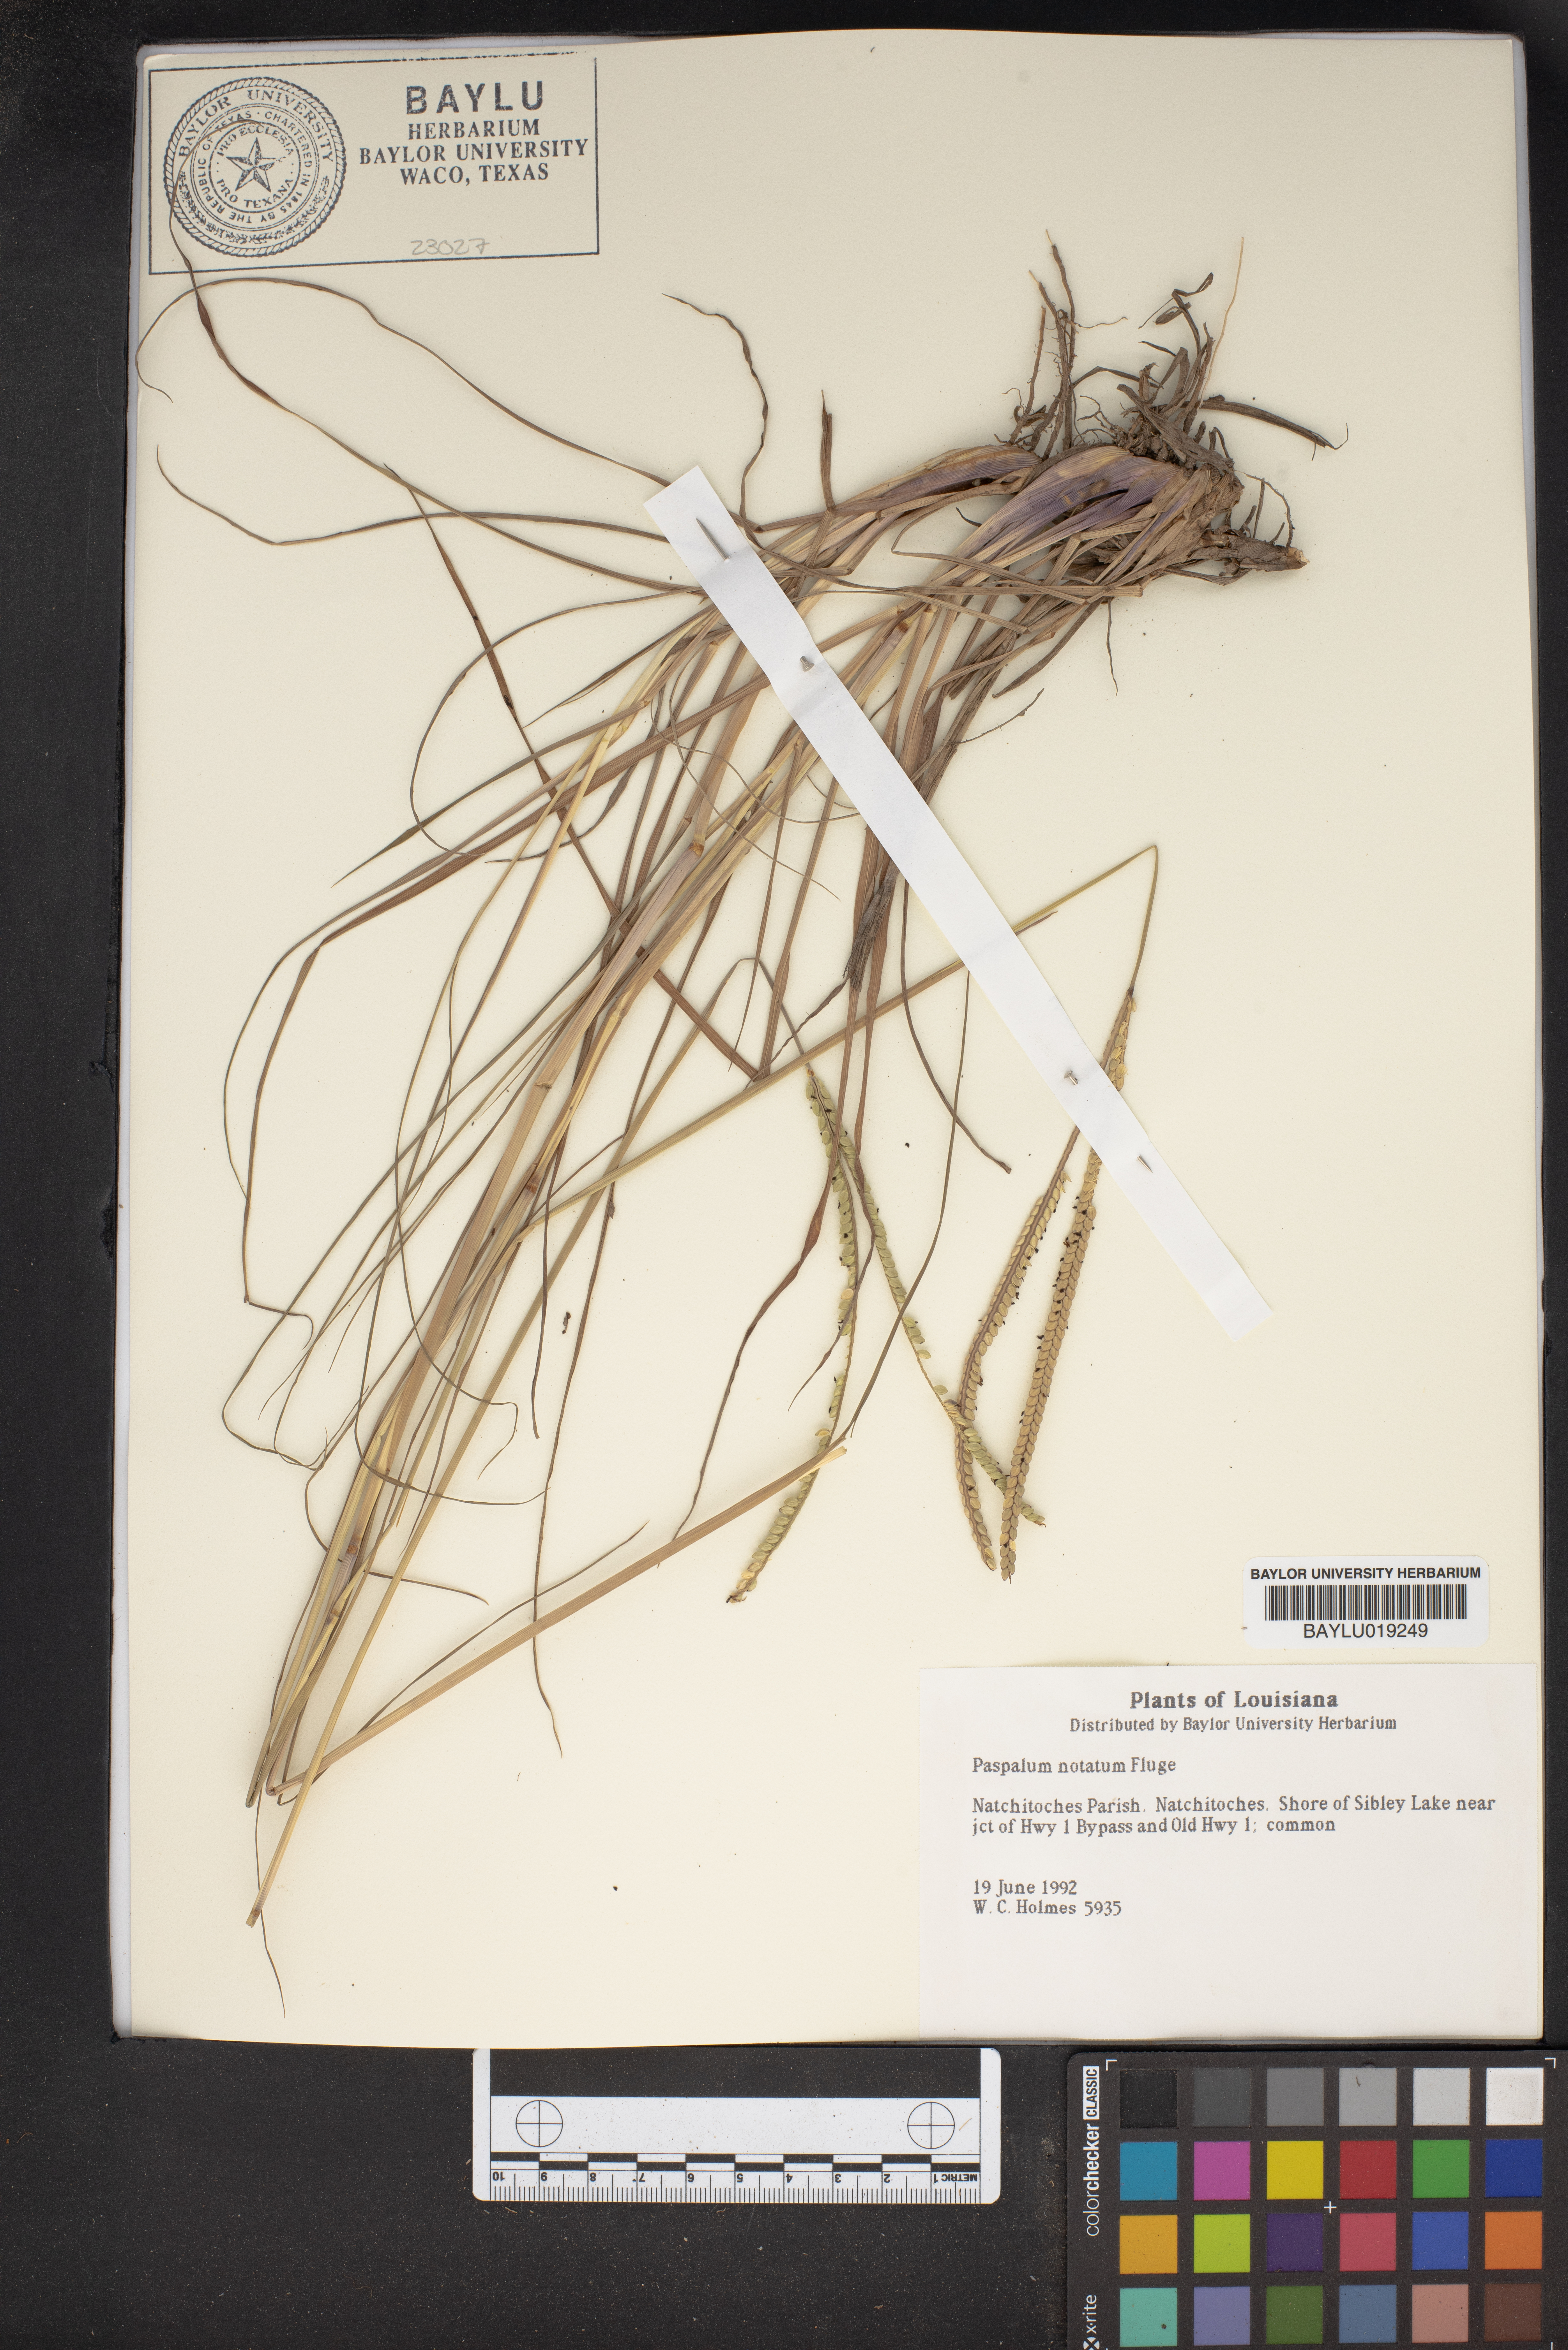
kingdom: Plantae
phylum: Tracheophyta
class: Liliopsida
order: Poales
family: Poaceae
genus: Paspalum
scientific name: Paspalum notatum
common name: Bahiagrass
